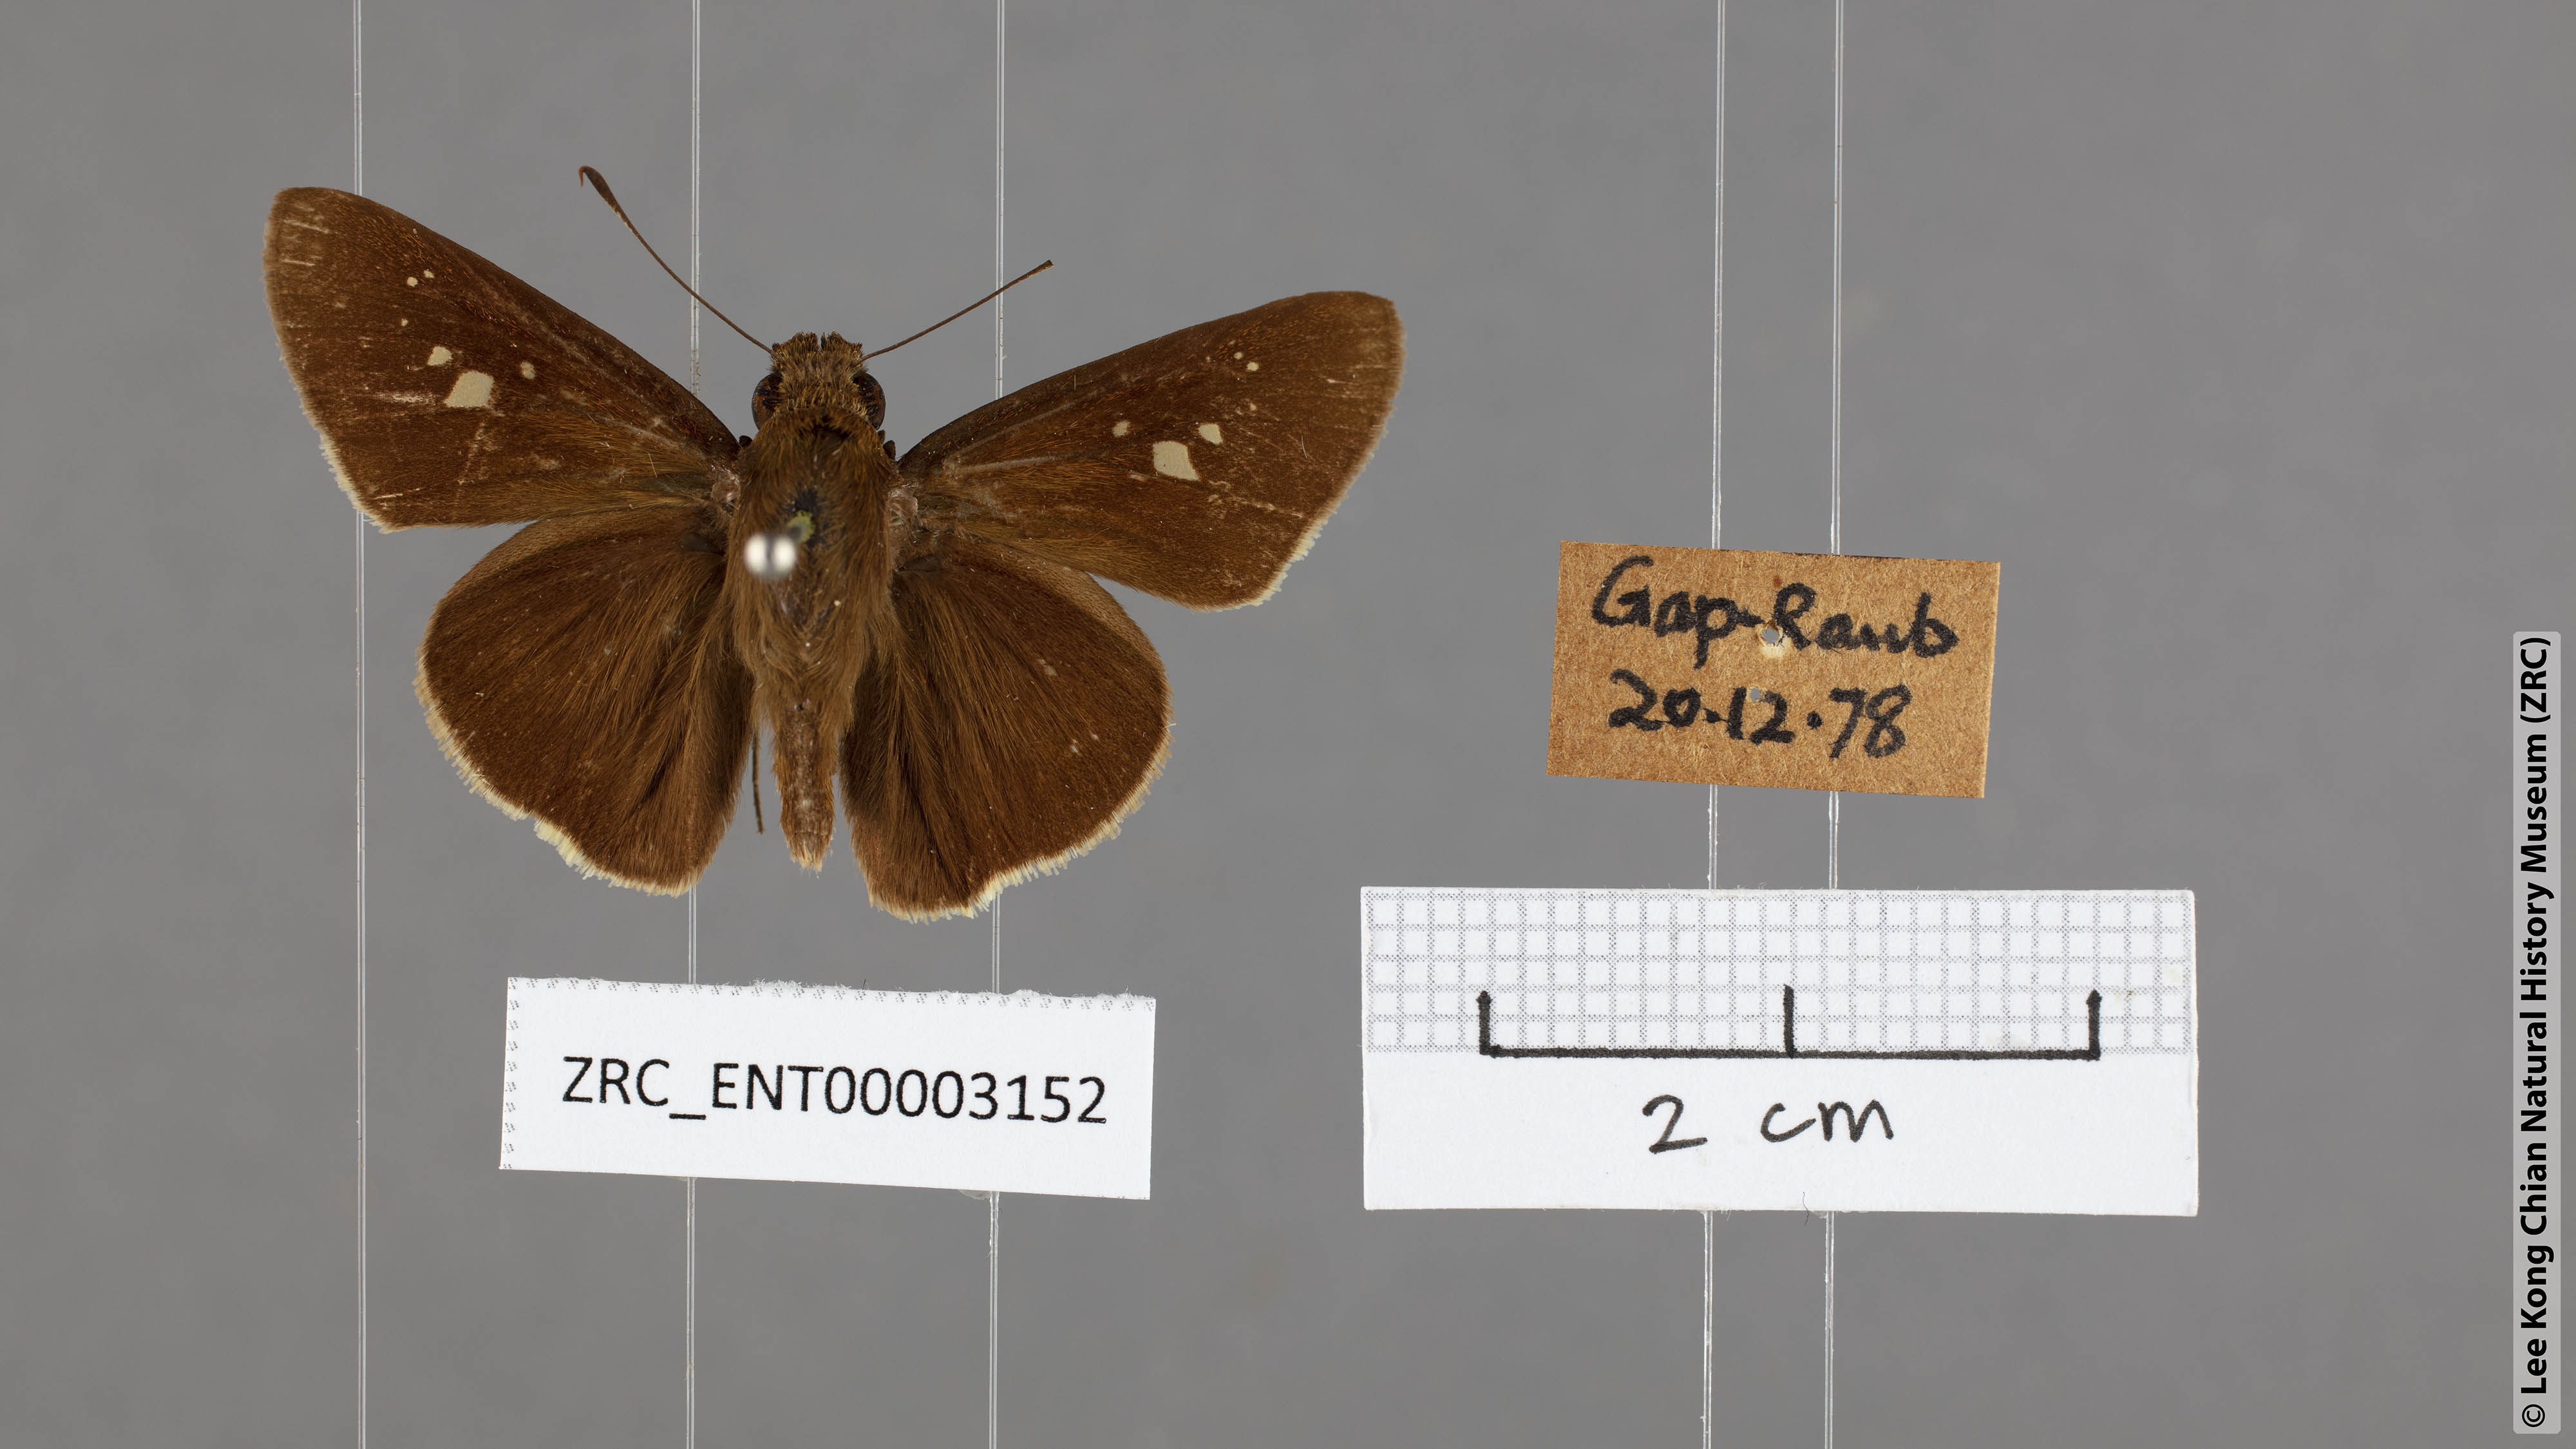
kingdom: Animalia
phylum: Arthropoda
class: Insecta
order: Lepidoptera
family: Hesperiidae
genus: Caltoris
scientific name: Caltoris cormasa
